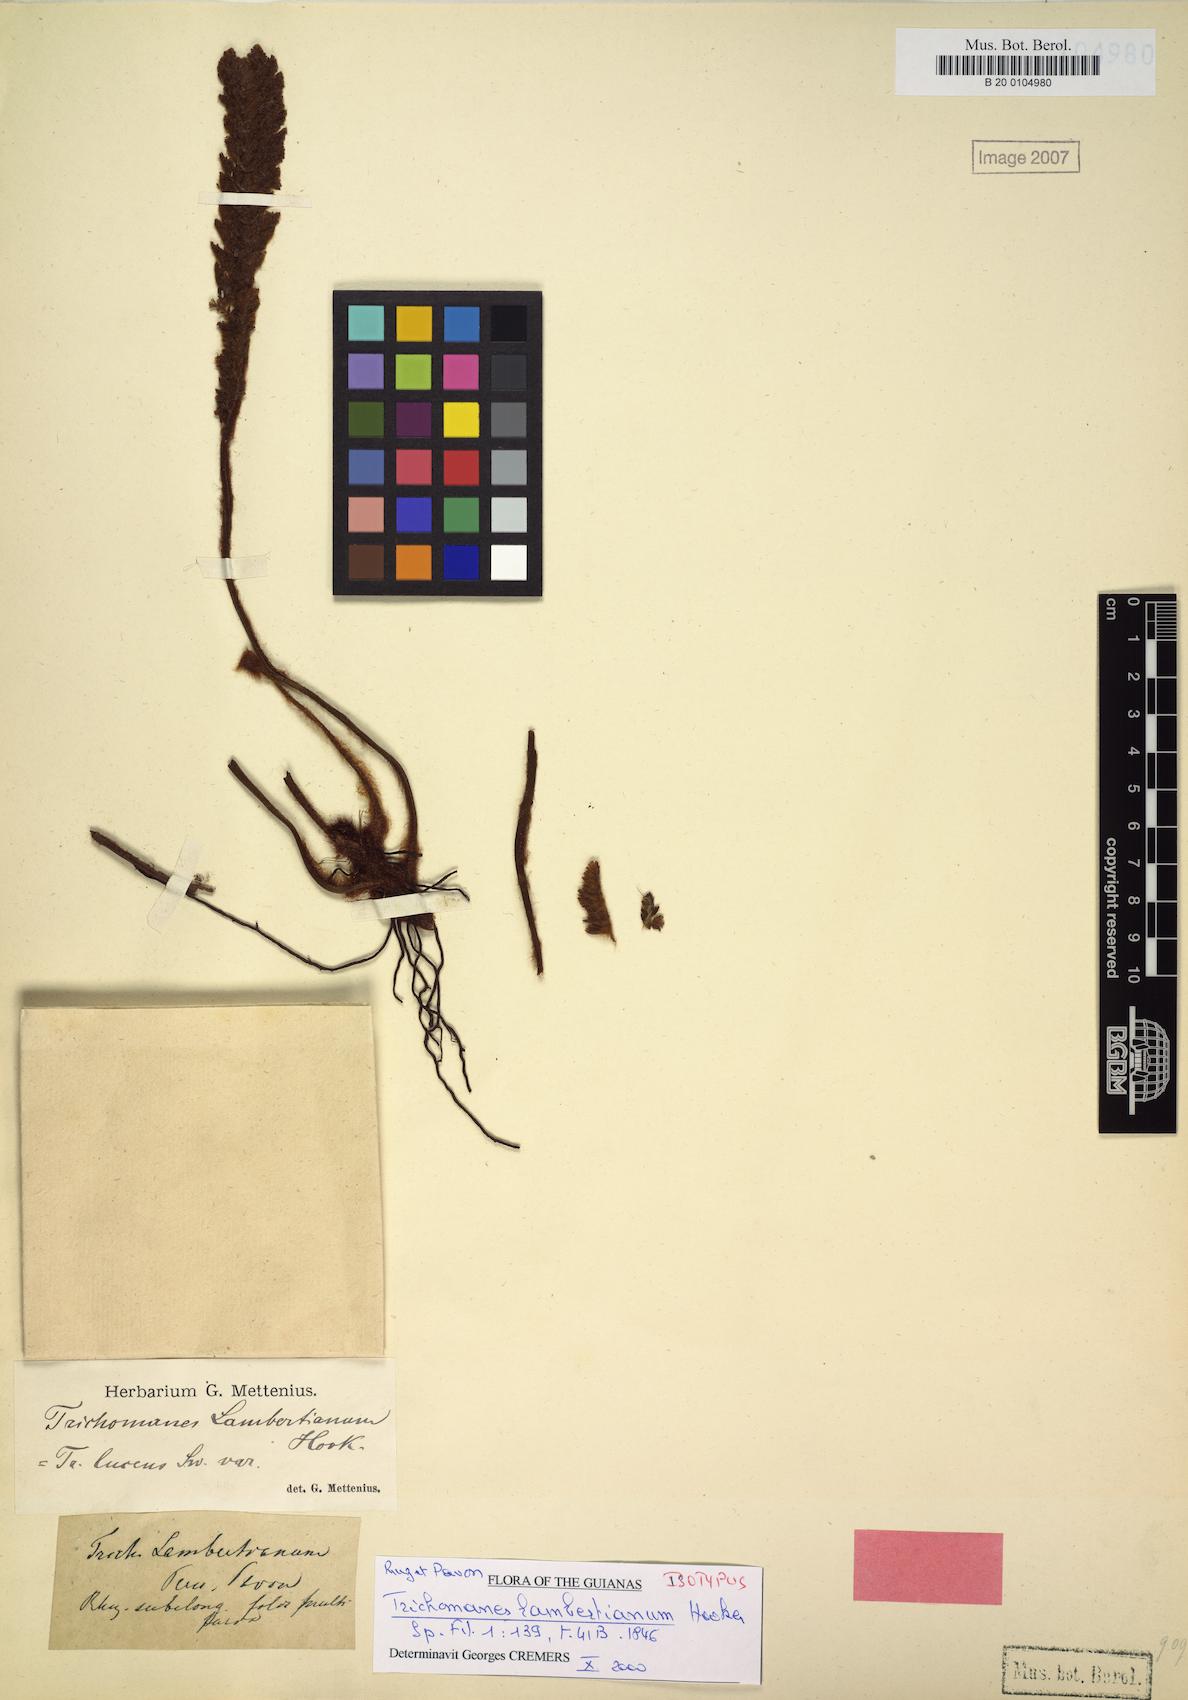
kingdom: Plantae
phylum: Tracheophyta
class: Polypodiopsida
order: Hymenophyllales
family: Hymenophyllaceae
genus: Trichomanes
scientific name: Trichomanes lucens
